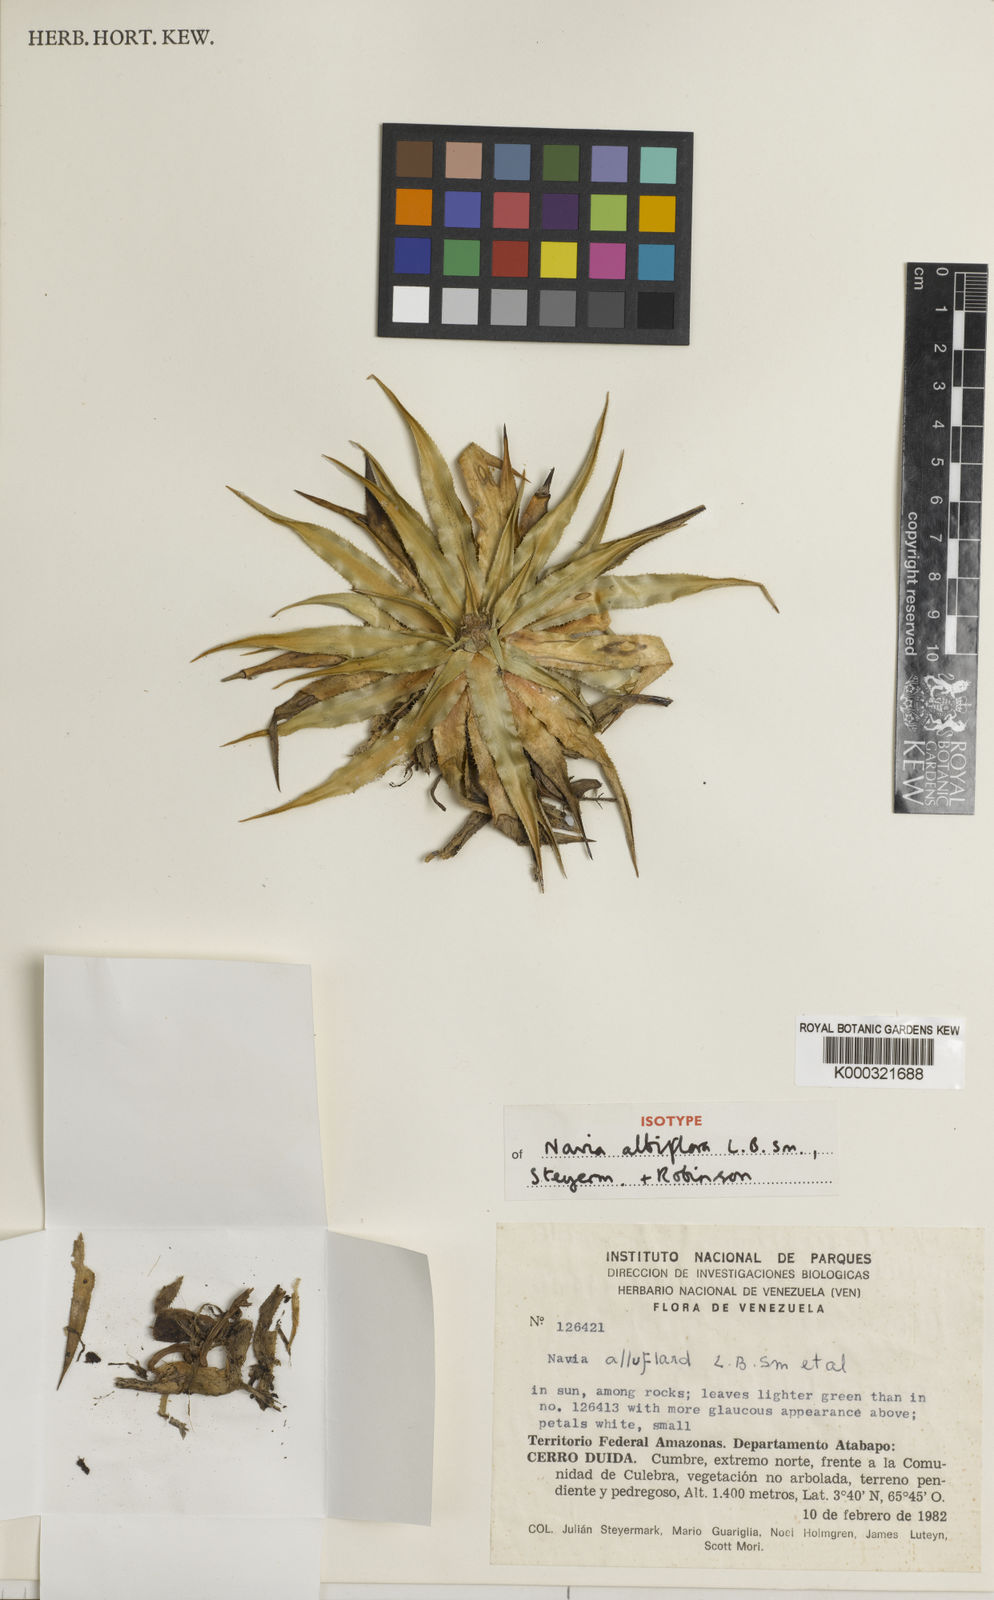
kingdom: Plantae
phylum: Tracheophyta
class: Liliopsida
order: Poales
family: Bromeliaceae
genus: Navia
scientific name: Navia pauciflora
